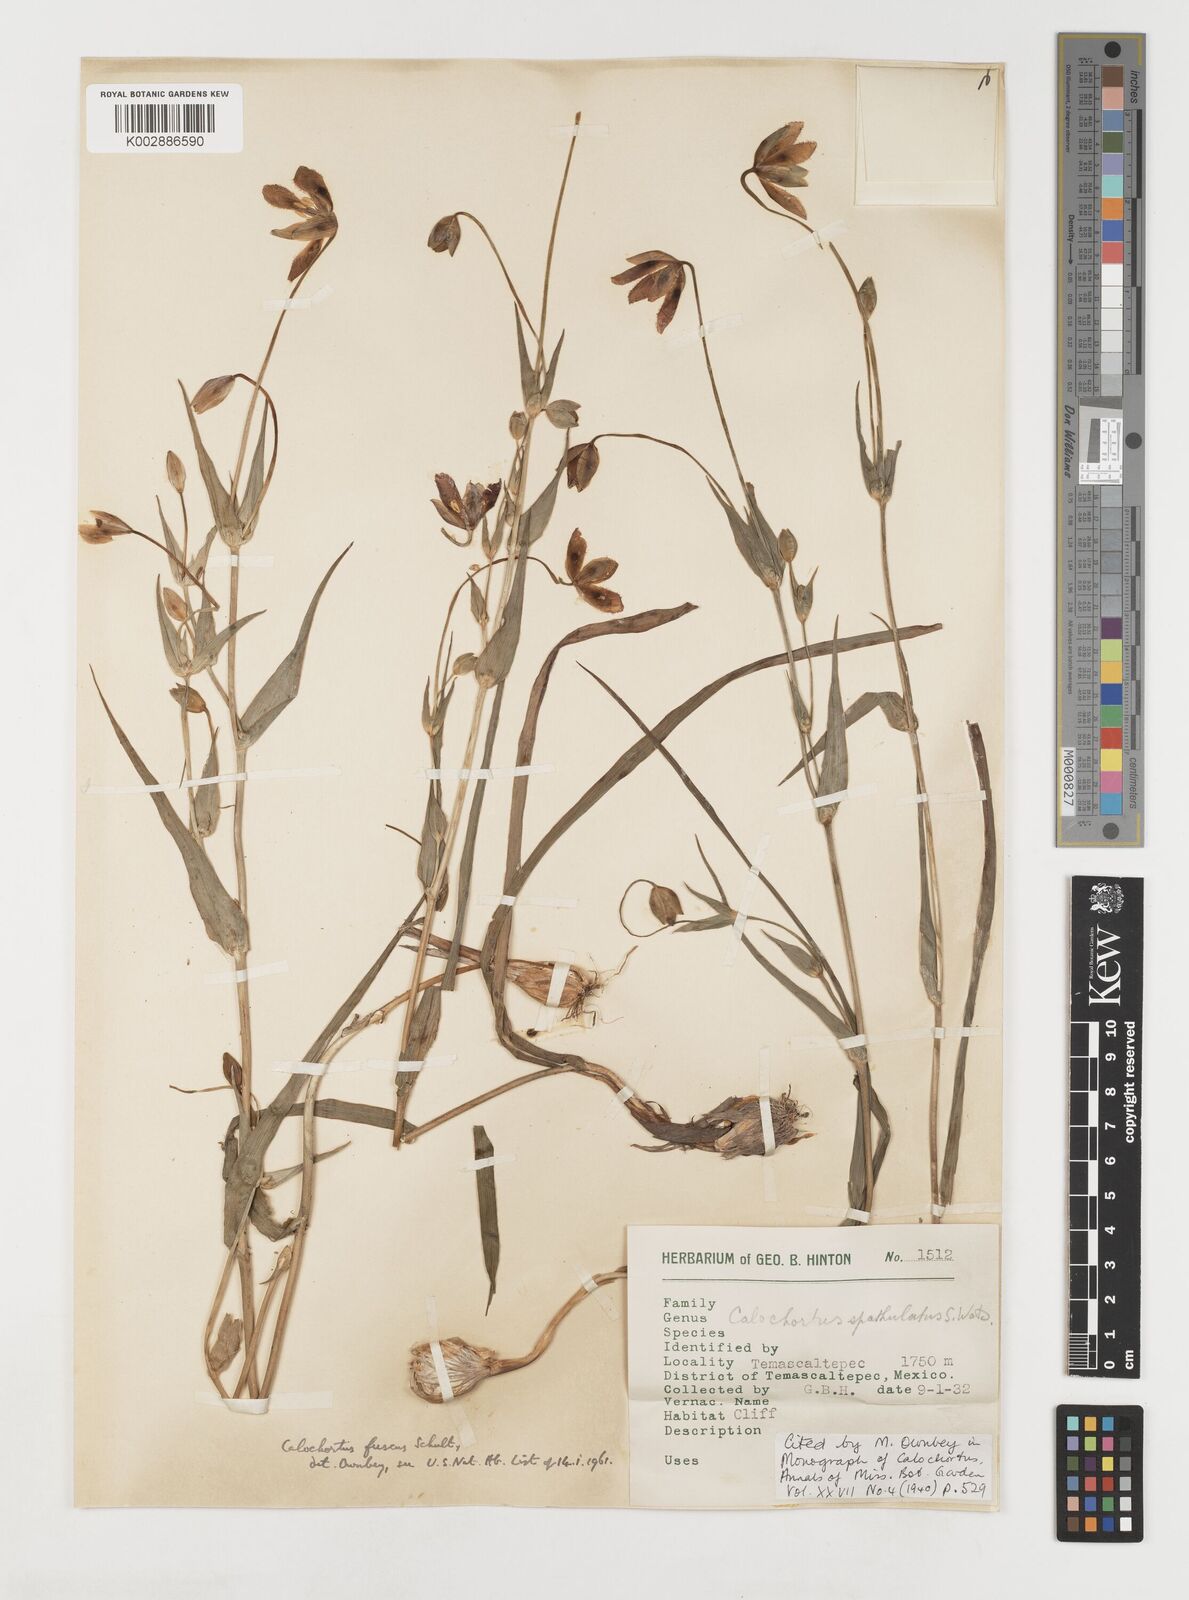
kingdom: Plantae
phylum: Tracheophyta
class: Liliopsida
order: Liliales
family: Liliaceae
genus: Calochortus
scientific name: Calochortus fuscus
